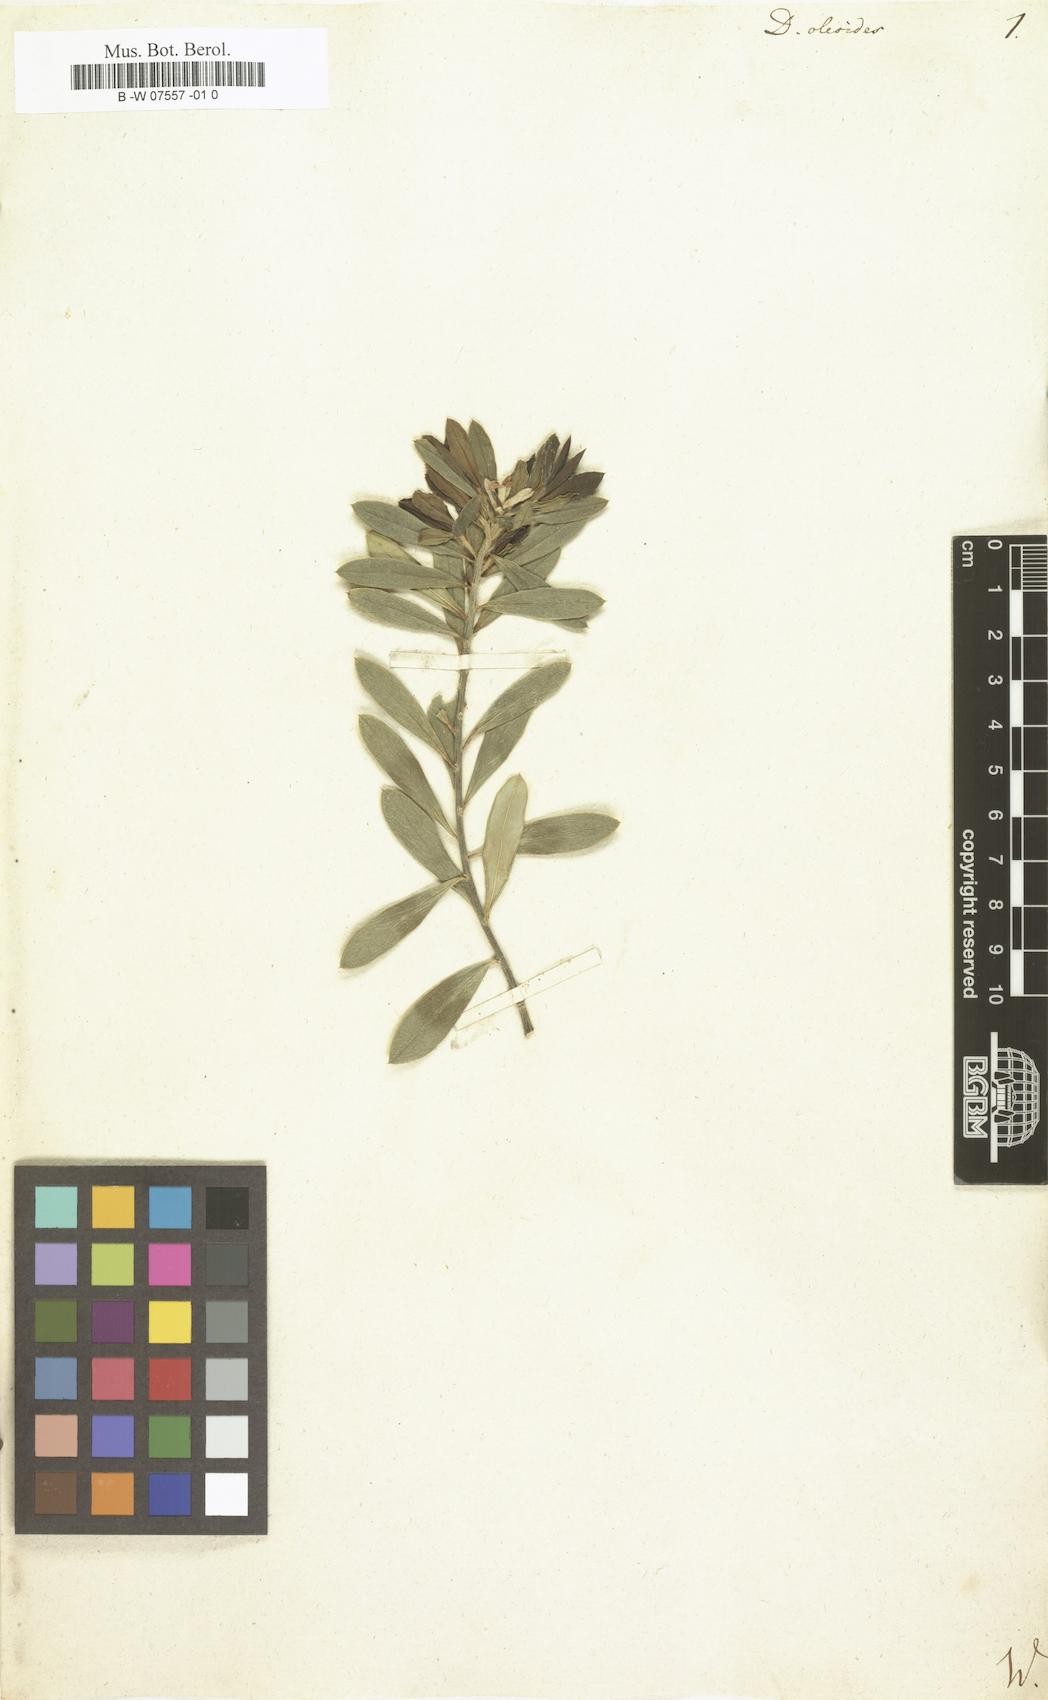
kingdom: Plantae
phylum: Tracheophyta
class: Magnoliopsida
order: Malvales
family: Thymelaeaceae
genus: Daphne
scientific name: Daphne oleoides
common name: Spurge-olive
